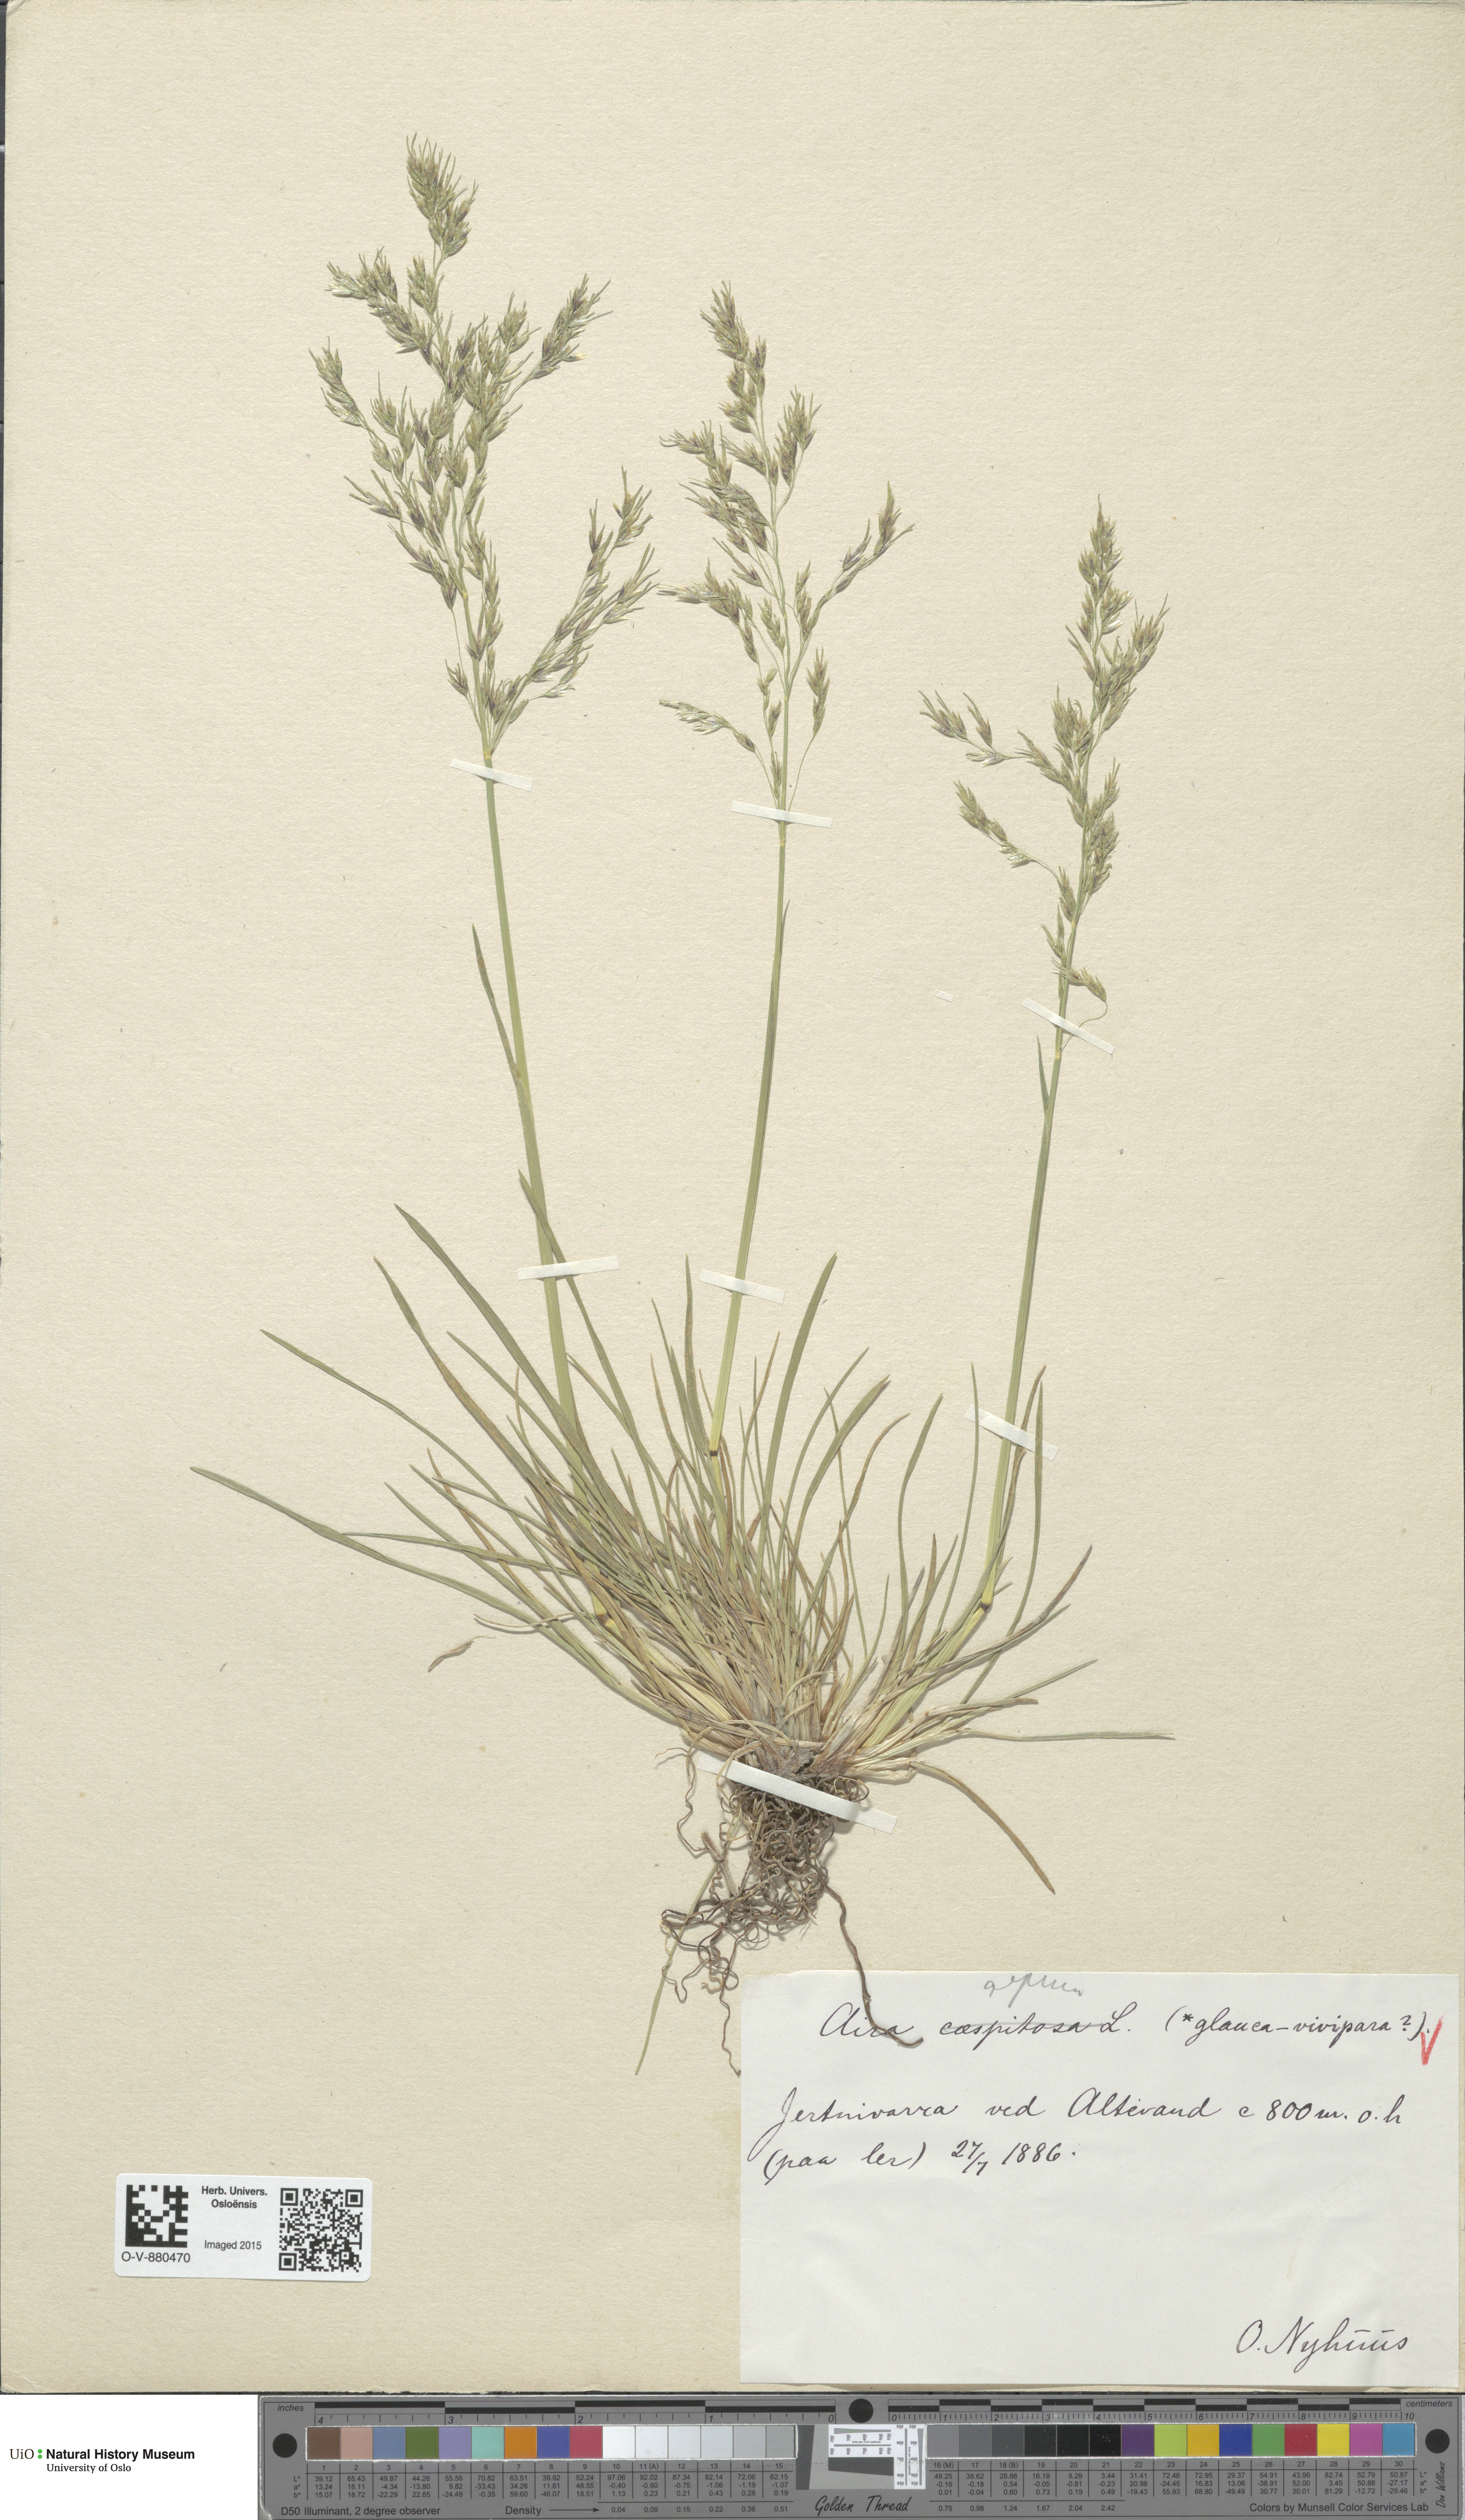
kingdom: Plantae
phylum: Tracheophyta
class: Liliopsida
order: Poales
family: Poaceae
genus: Deschampsia
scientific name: Deschampsia cespitosa
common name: Tufted hair-grass
